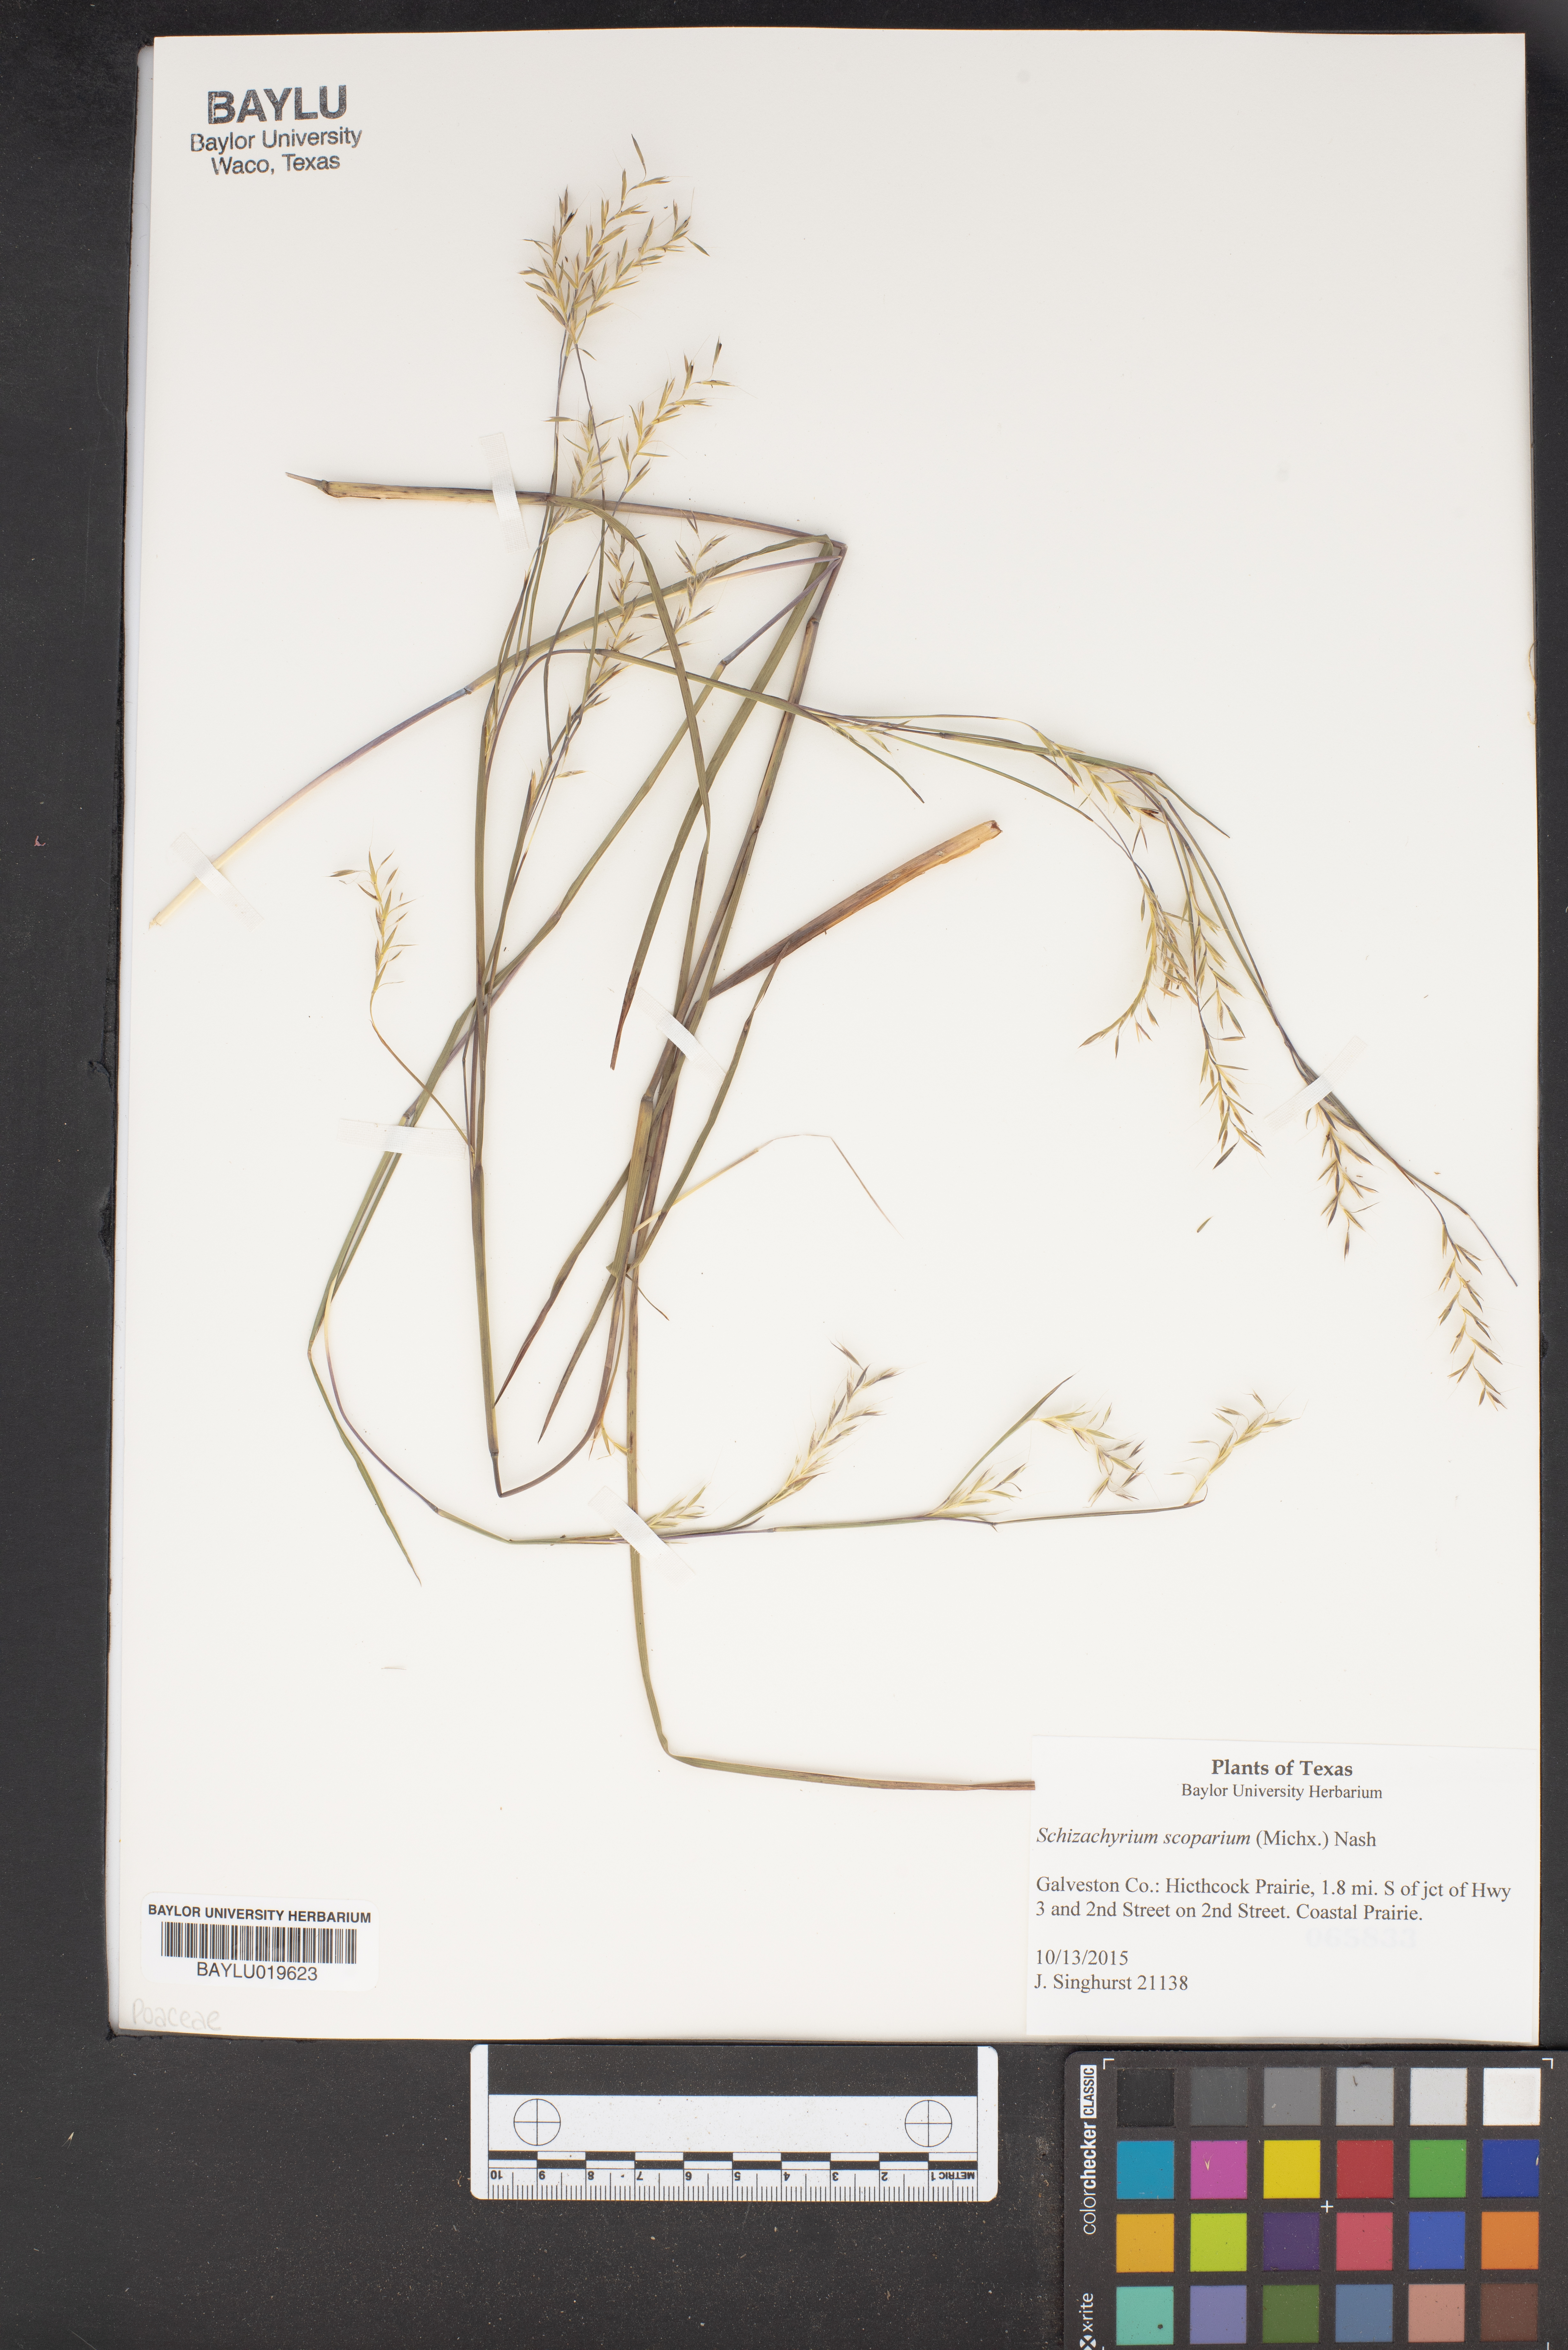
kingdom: Plantae
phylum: Tracheophyta
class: Liliopsida
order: Poales
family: Poaceae
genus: Schizachyrium
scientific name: Schizachyrium scoparium
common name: Little bluestem
